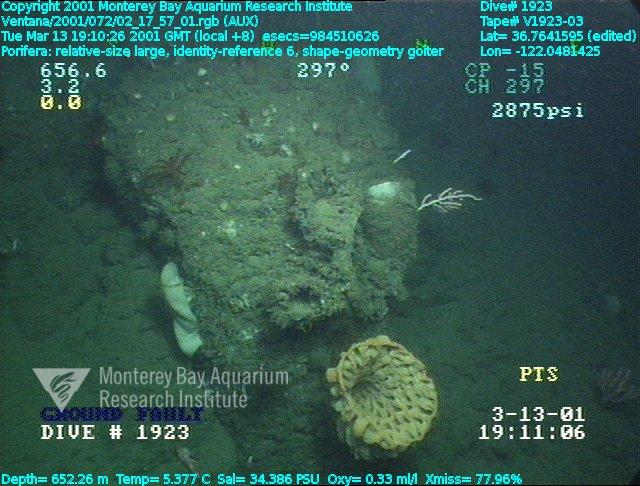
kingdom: Animalia
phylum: Porifera
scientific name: Porifera
